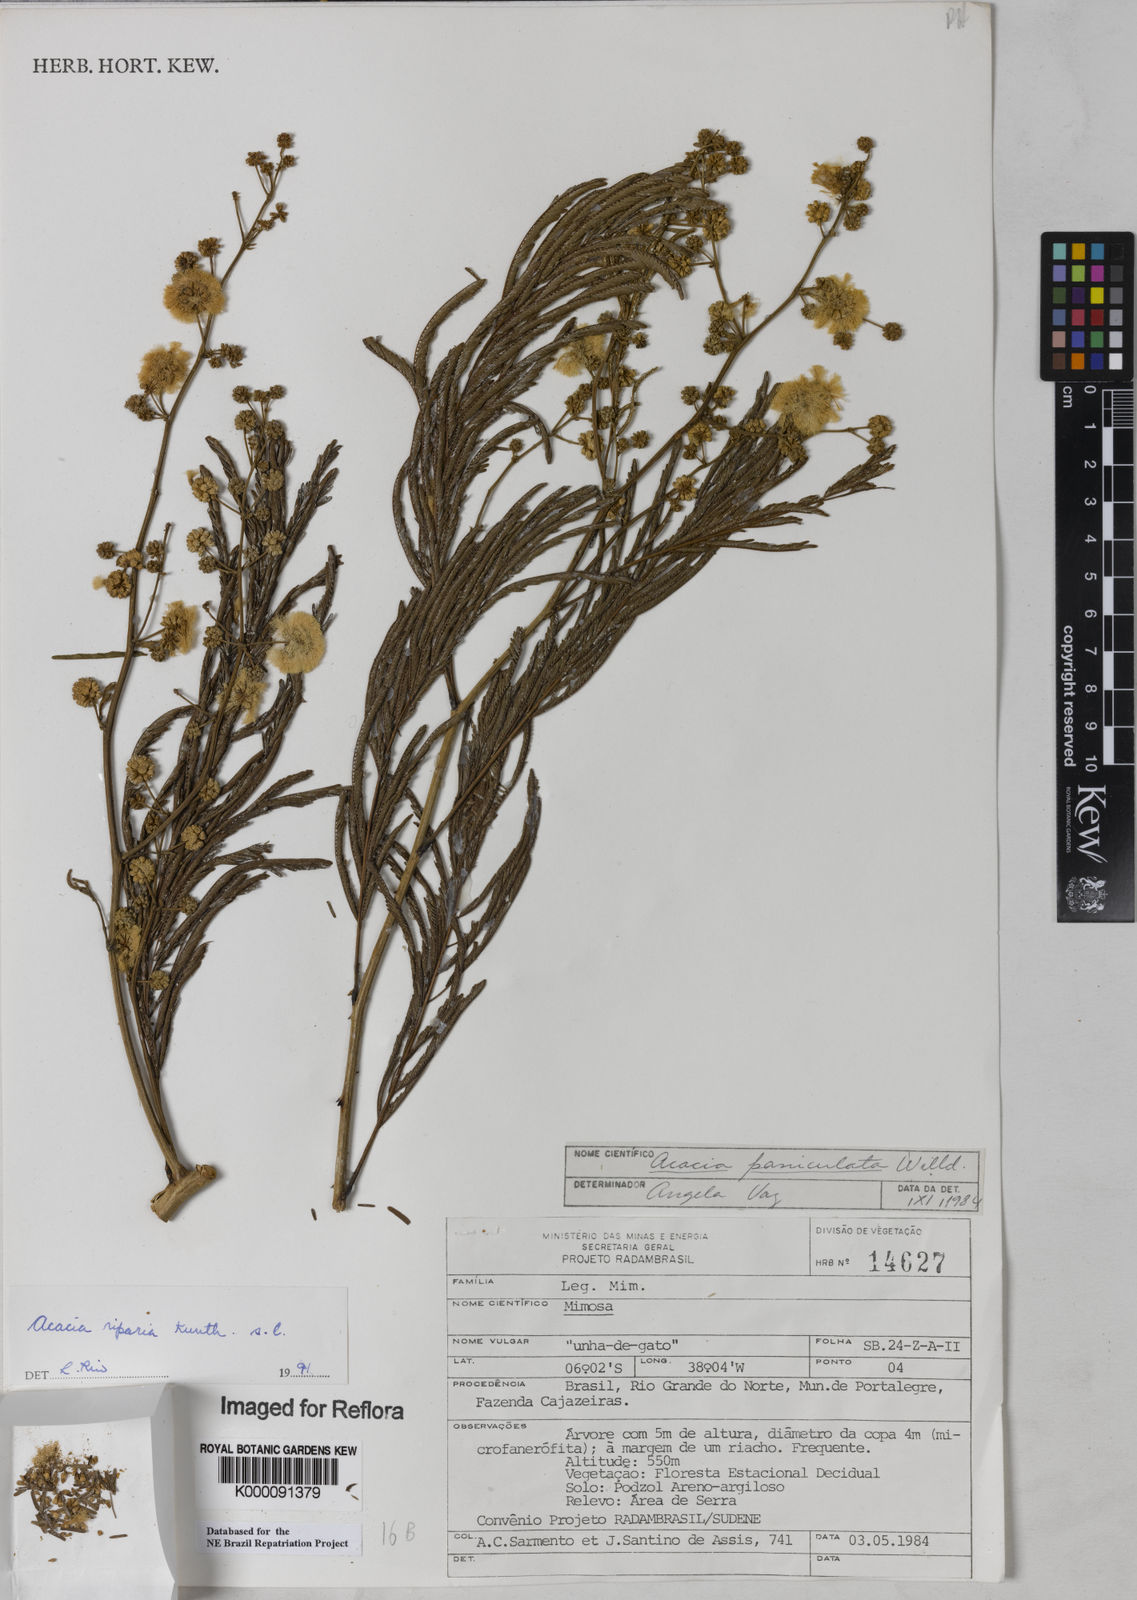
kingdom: Plantae
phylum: Tracheophyta
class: Magnoliopsida
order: Fabales
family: Fabaceae
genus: Senegalia
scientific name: Senegalia riparia
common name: Catch-and-keep
